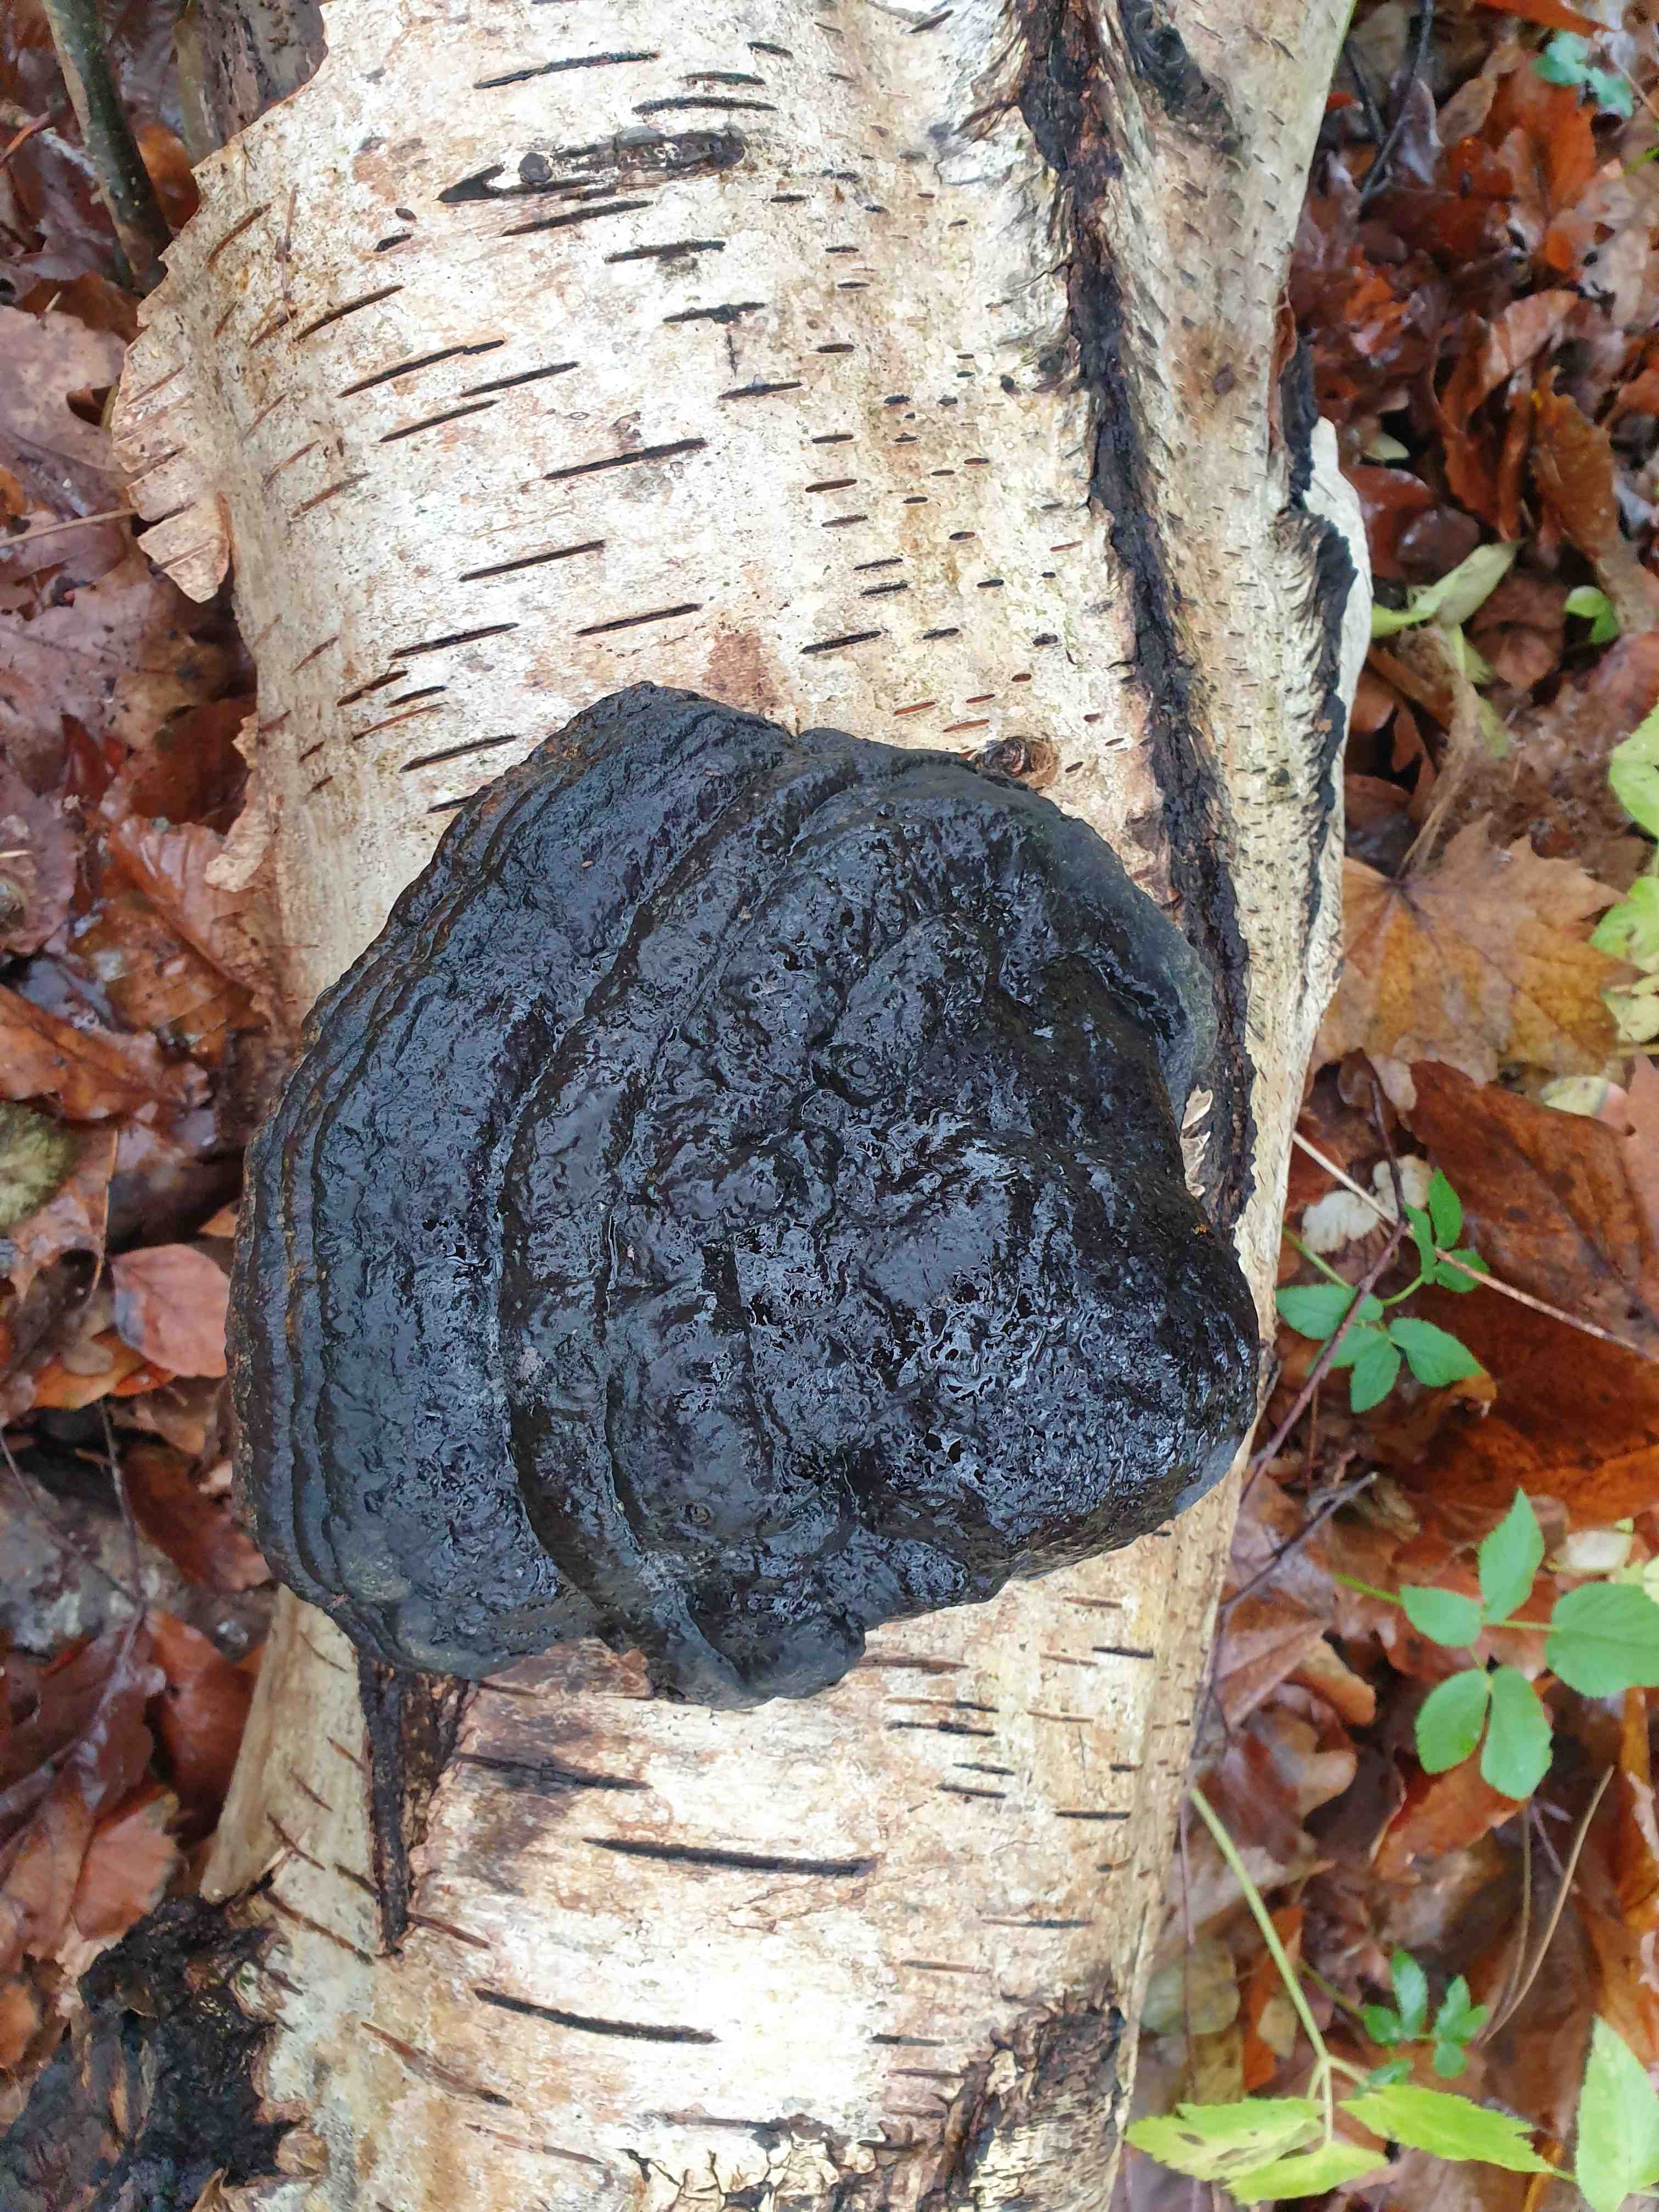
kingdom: Fungi
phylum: Basidiomycota
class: Agaricomycetes
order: Polyporales
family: Polyporaceae
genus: Fomes
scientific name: Fomes fomentarius
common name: tøndersvamp
